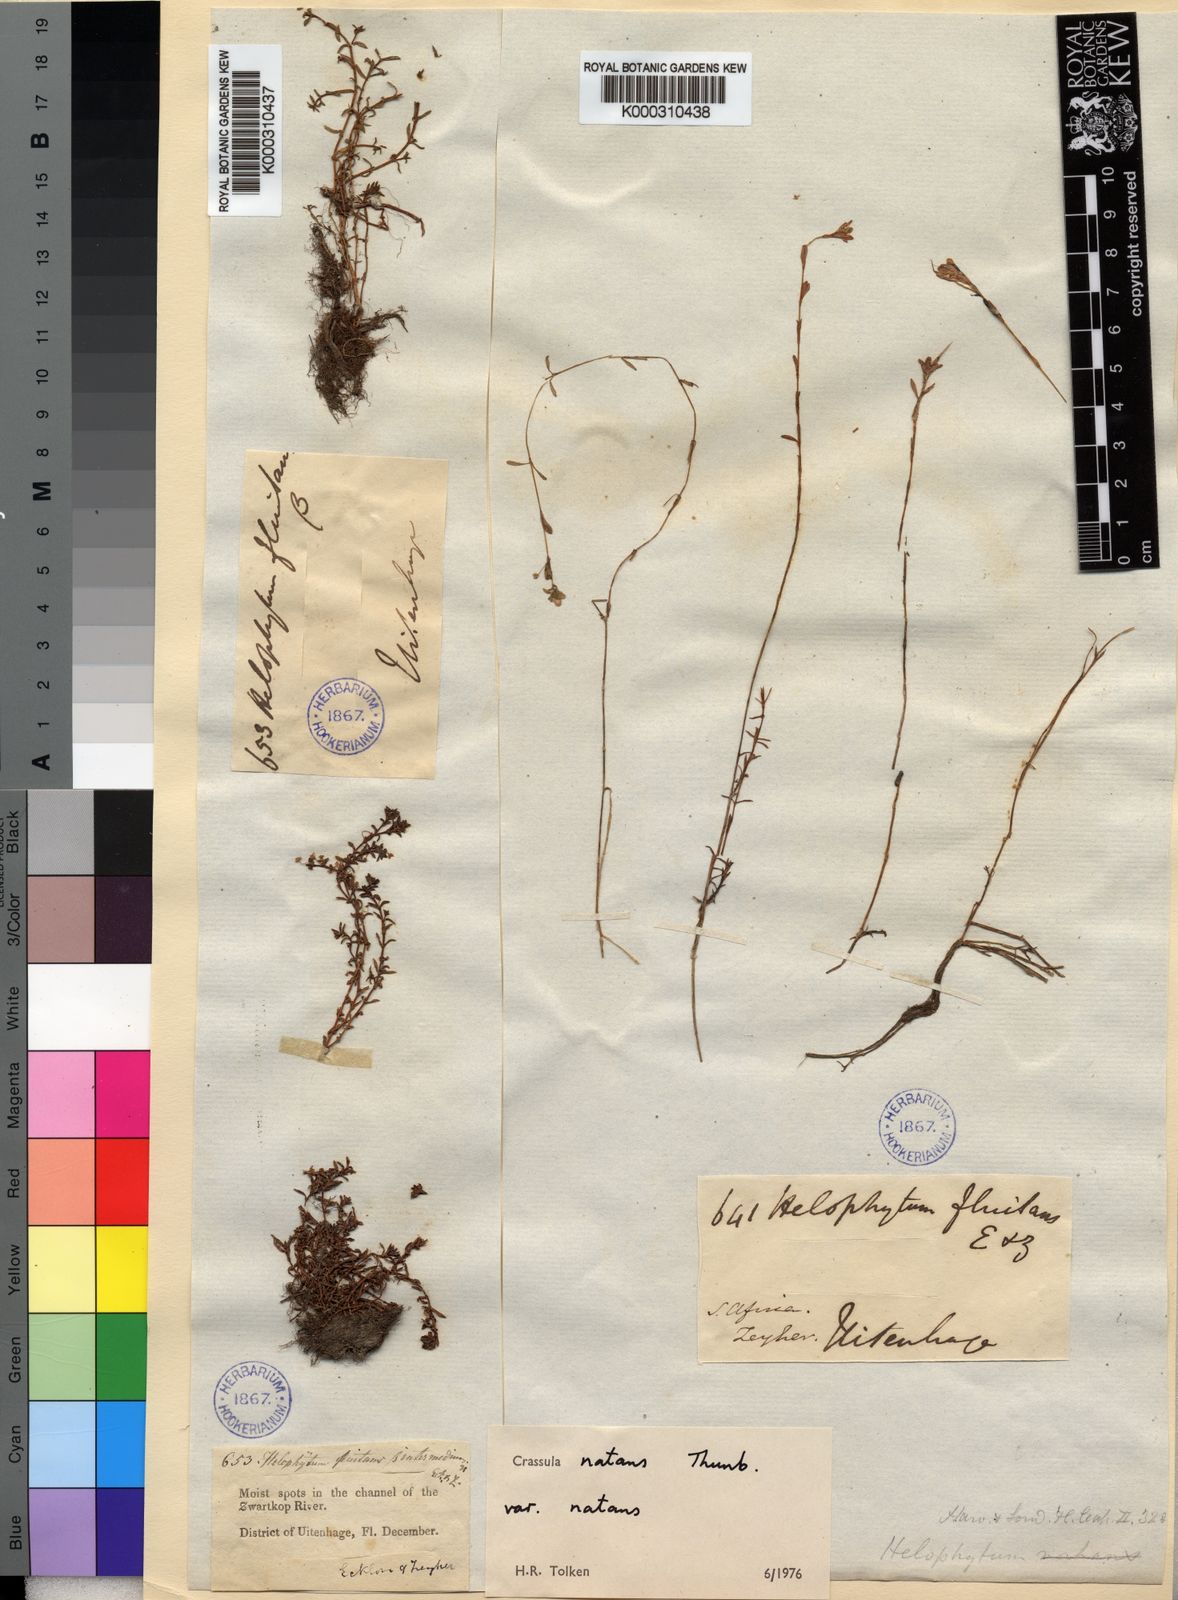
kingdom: Plantae
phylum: Tracheophyta
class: Magnoliopsida
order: Saxifragales
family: Crassulaceae
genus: Crassula
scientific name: Crassula natans
